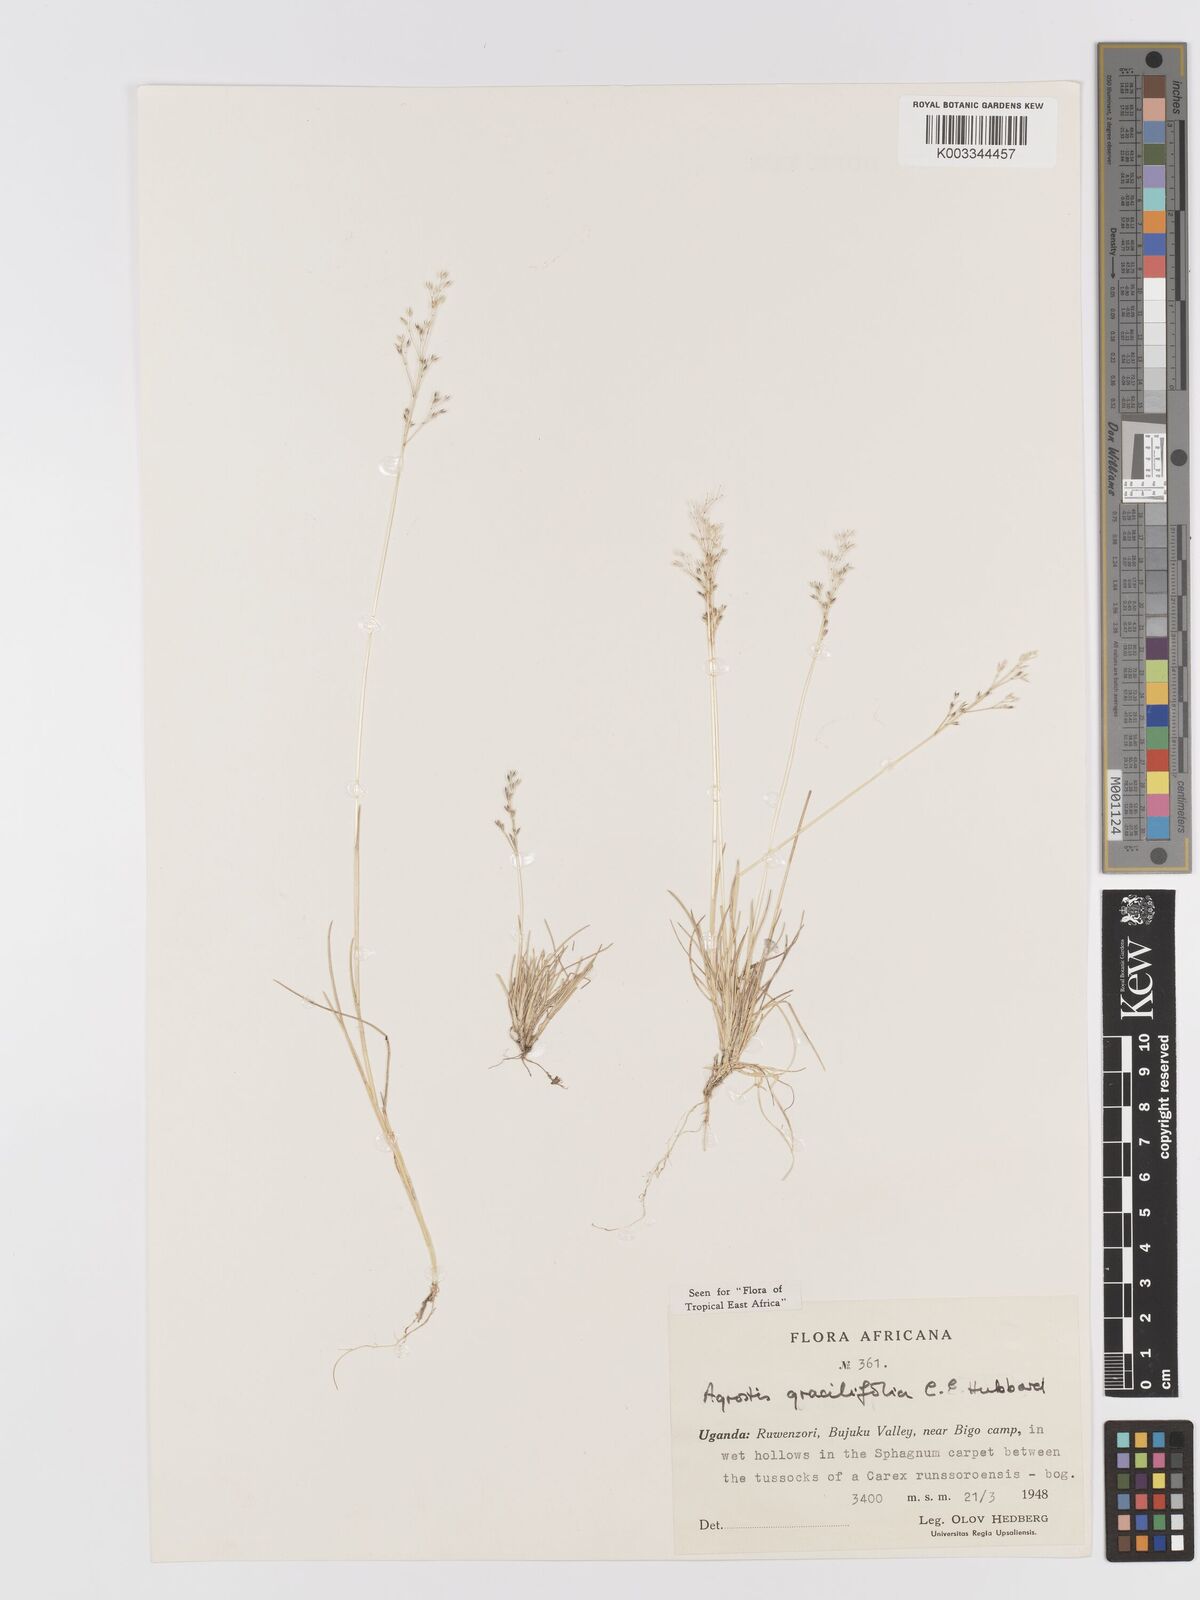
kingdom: Plantae
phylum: Tracheophyta
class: Liliopsida
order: Poales
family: Poaceae
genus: Agrostis
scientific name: Agrostis gracilifolia
